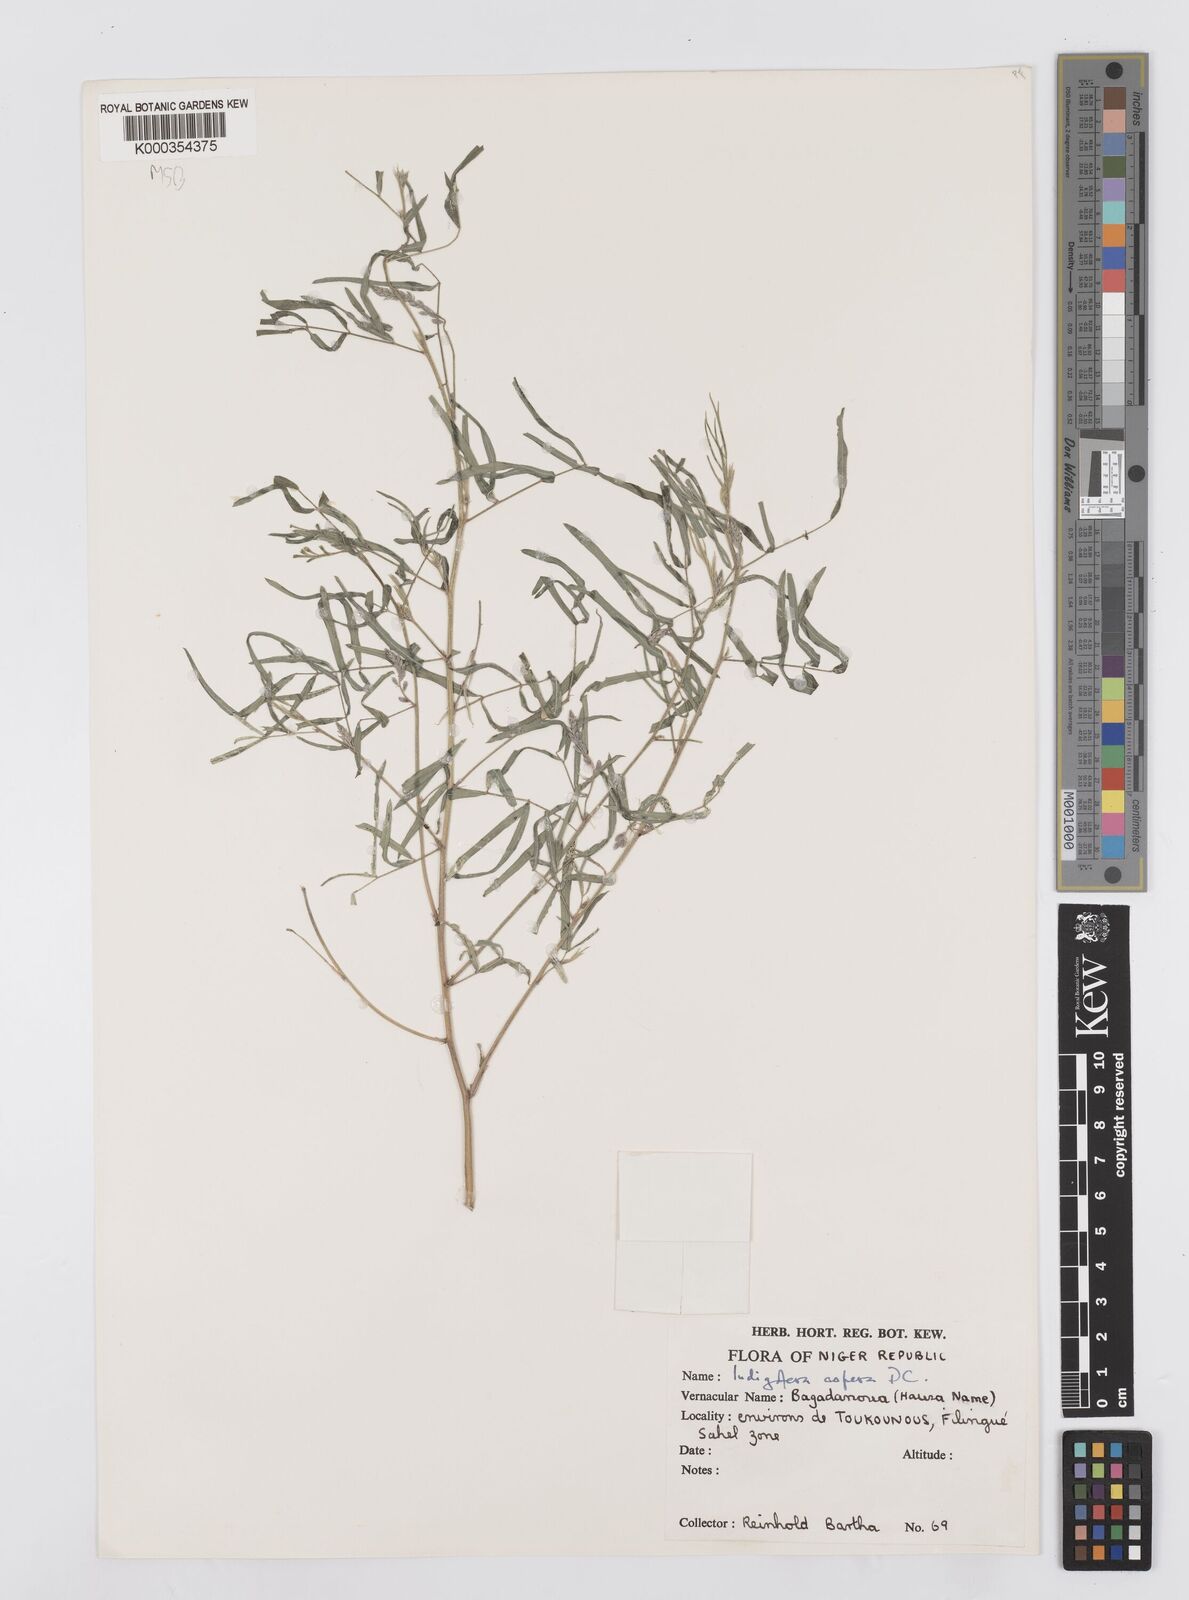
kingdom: Plantae
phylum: Tracheophyta
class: Magnoliopsida
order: Fabales
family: Fabaceae
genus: Indigofera
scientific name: Indigofera aspera
